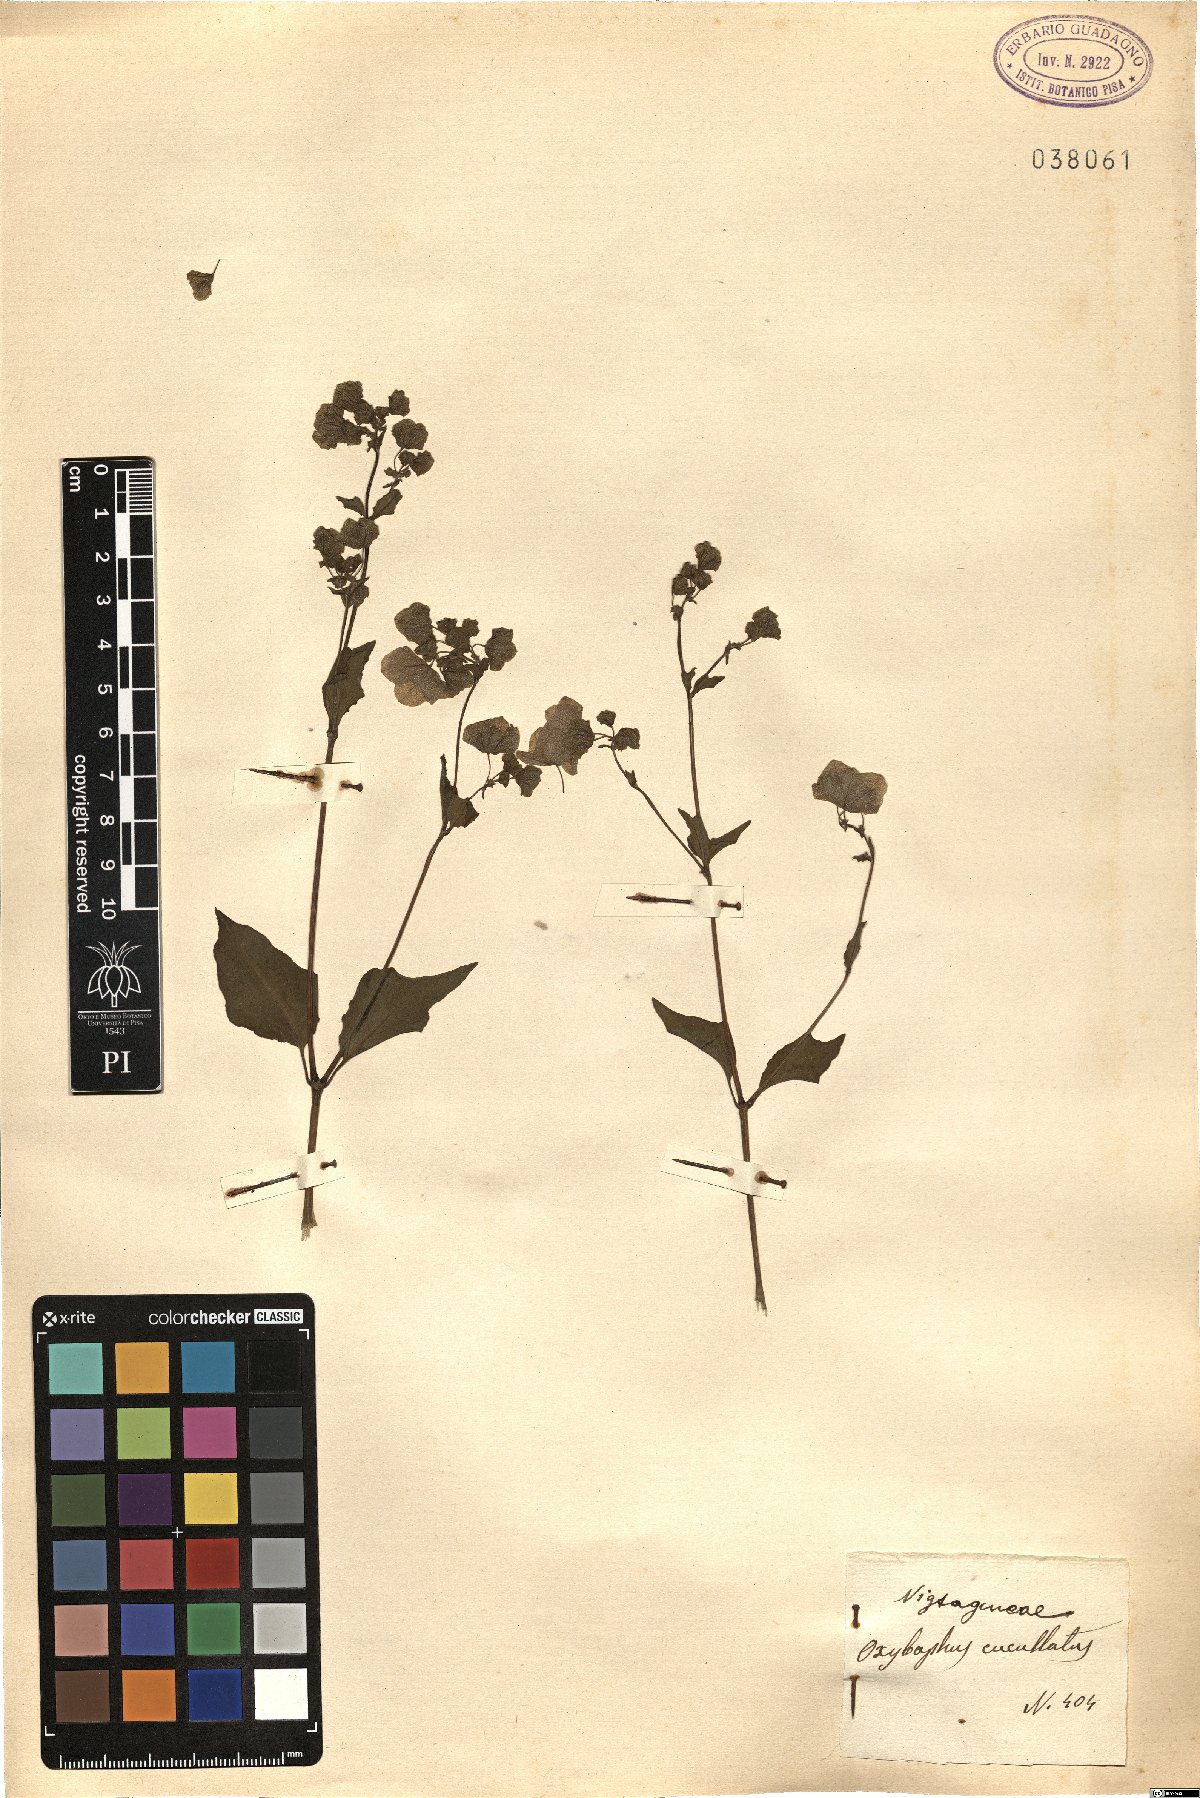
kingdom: Plantae
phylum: Tracheophyta
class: Magnoliopsida
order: Caryophyllales
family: Nyctaginaceae
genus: Mirabilis
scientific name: Mirabilis nyctaginea
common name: Umbrella wort
